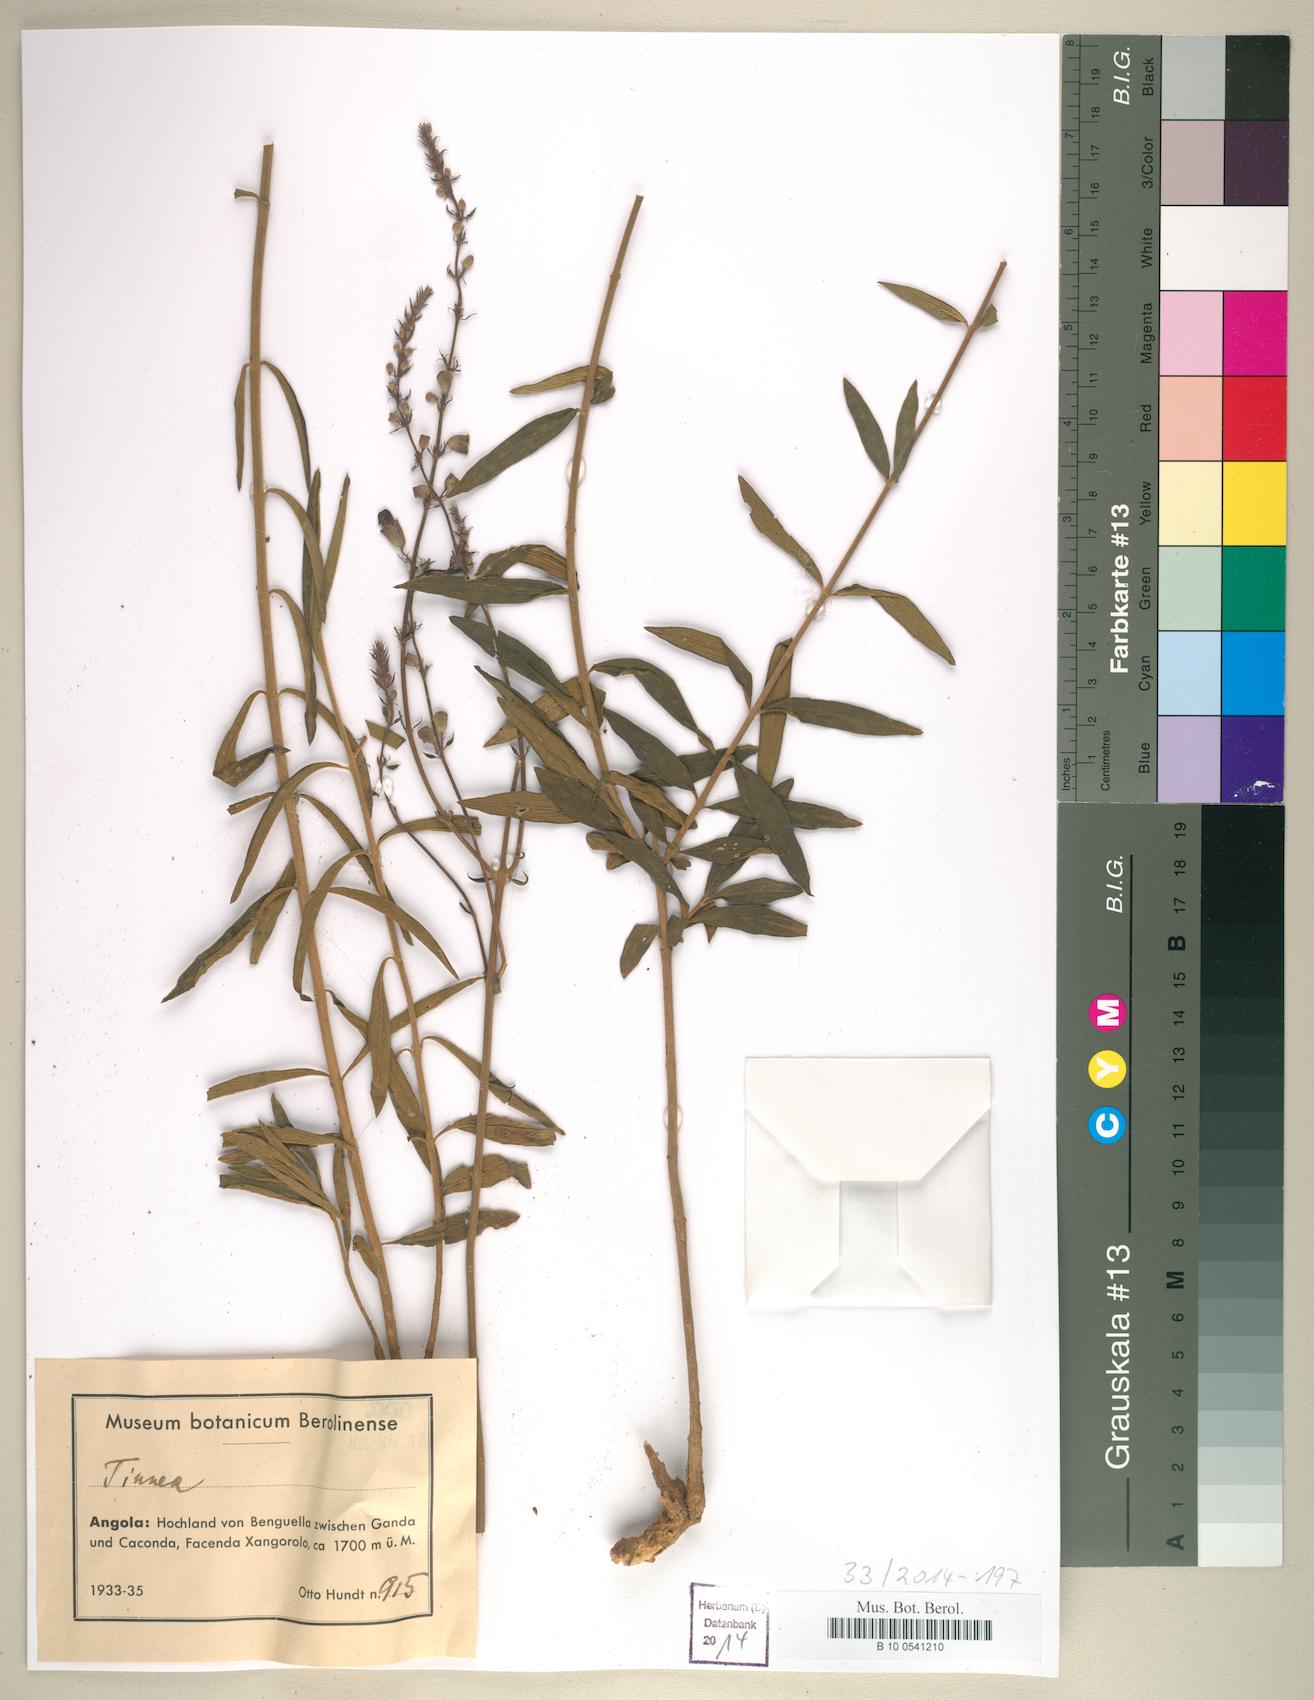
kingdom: Plantae
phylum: Tracheophyta
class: Magnoliopsida
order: Lamiales
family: Lamiaceae
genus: Tinnea
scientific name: Tinnea
